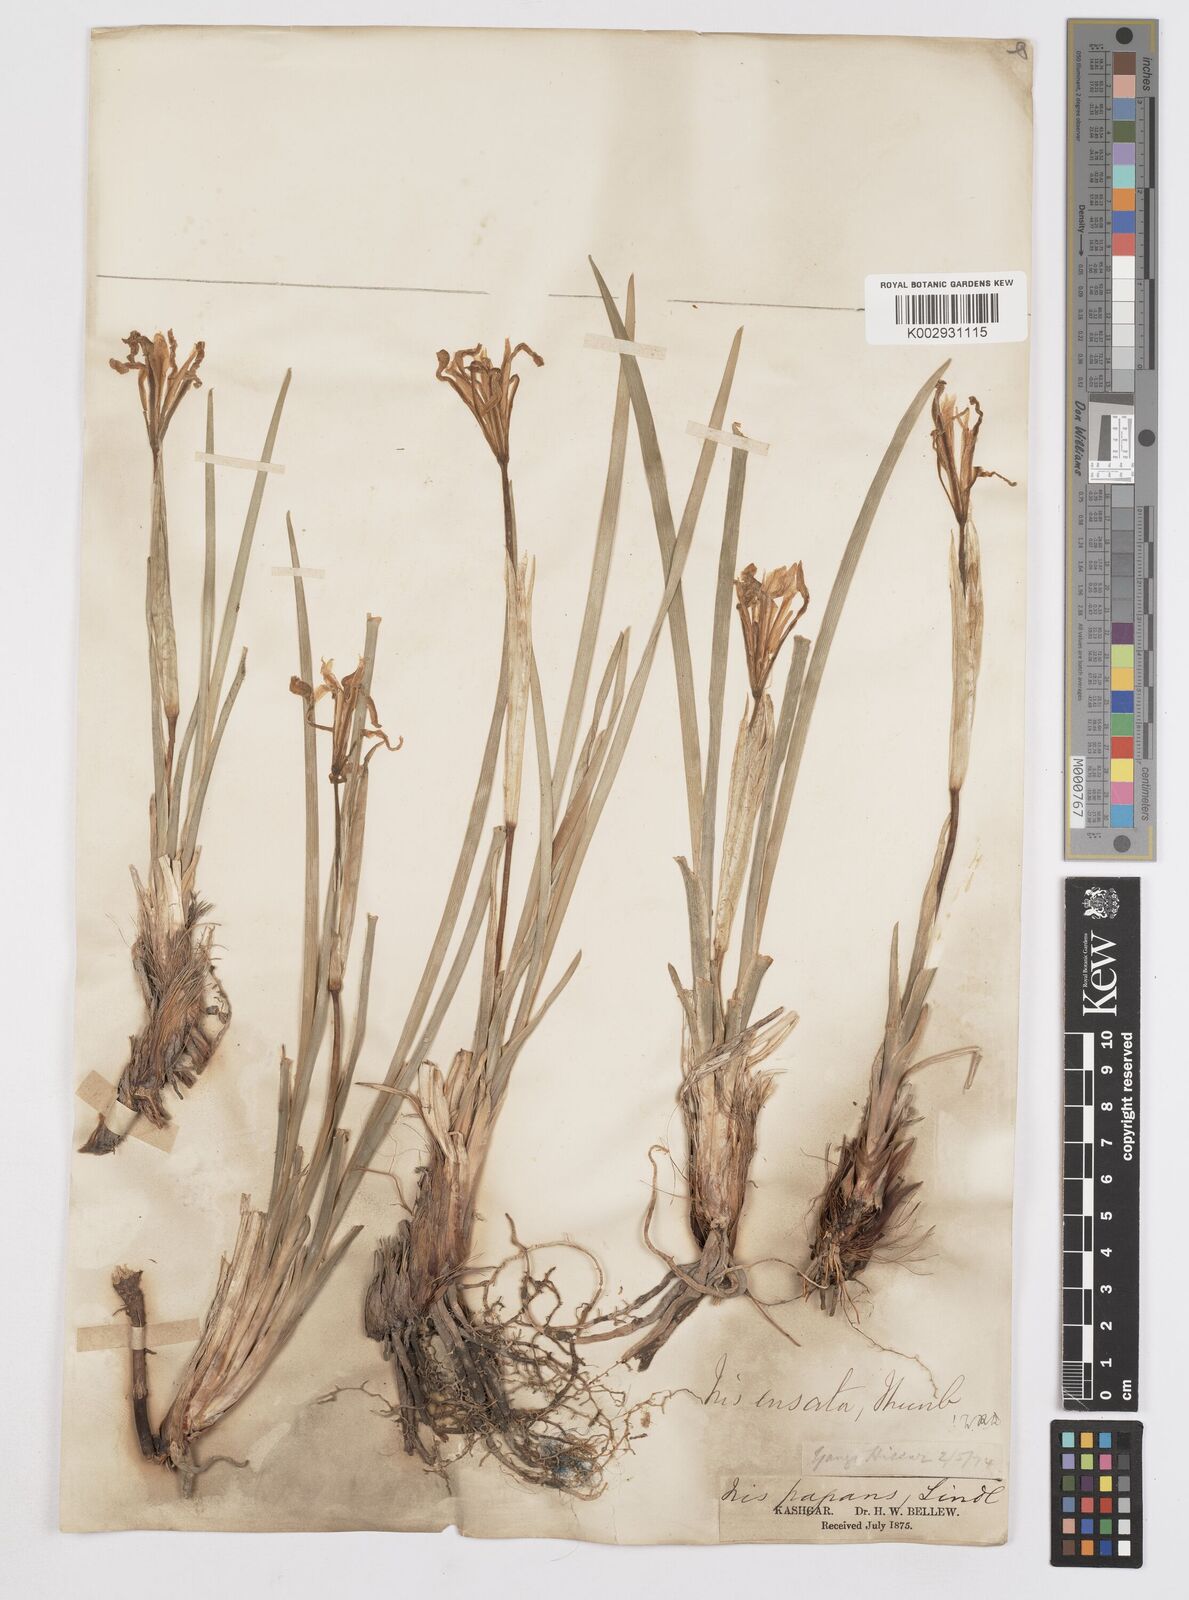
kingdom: Plantae
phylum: Tracheophyta
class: Liliopsida
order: Asparagales
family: Iridaceae
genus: Iris
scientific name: Iris ensata
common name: Beaked iris
